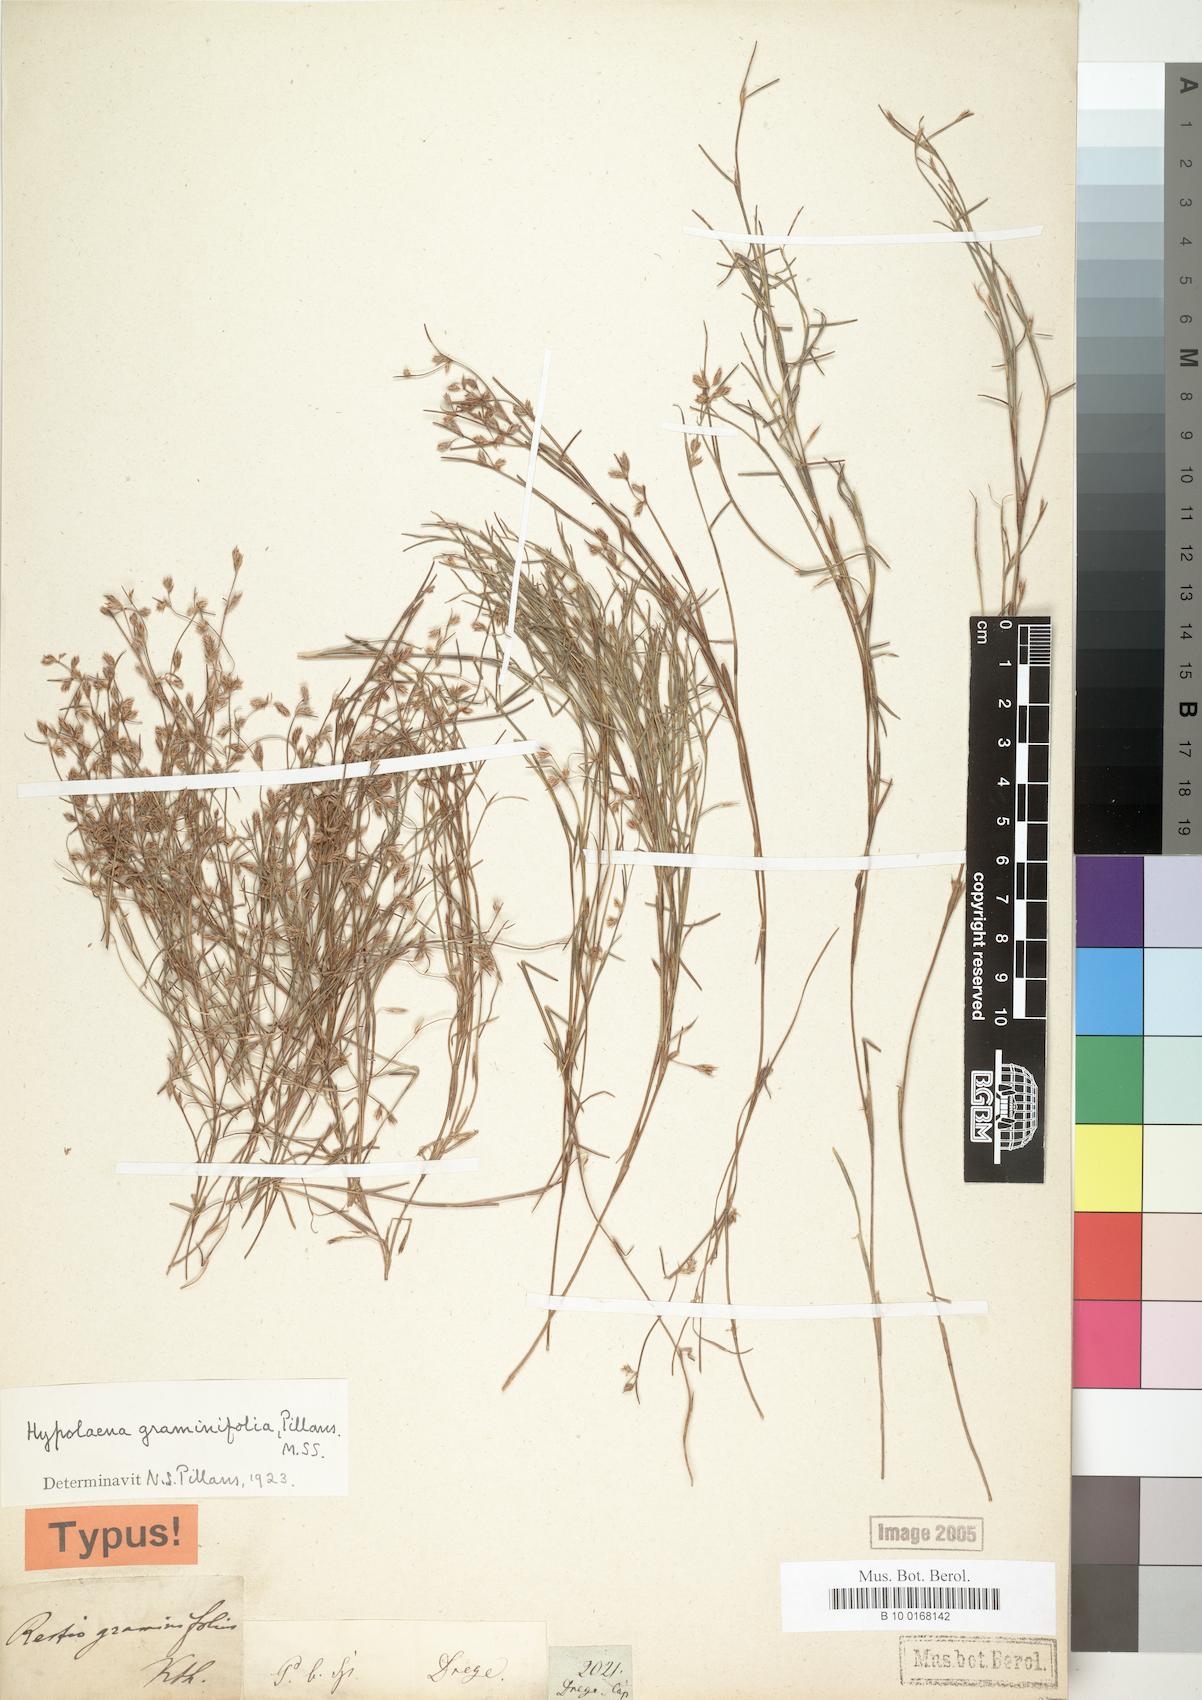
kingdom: Plantae
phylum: Tracheophyta
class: Liliopsida
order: Poales
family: Restionaceae
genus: Anthochortus
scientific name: Anthochortus graminifolius
